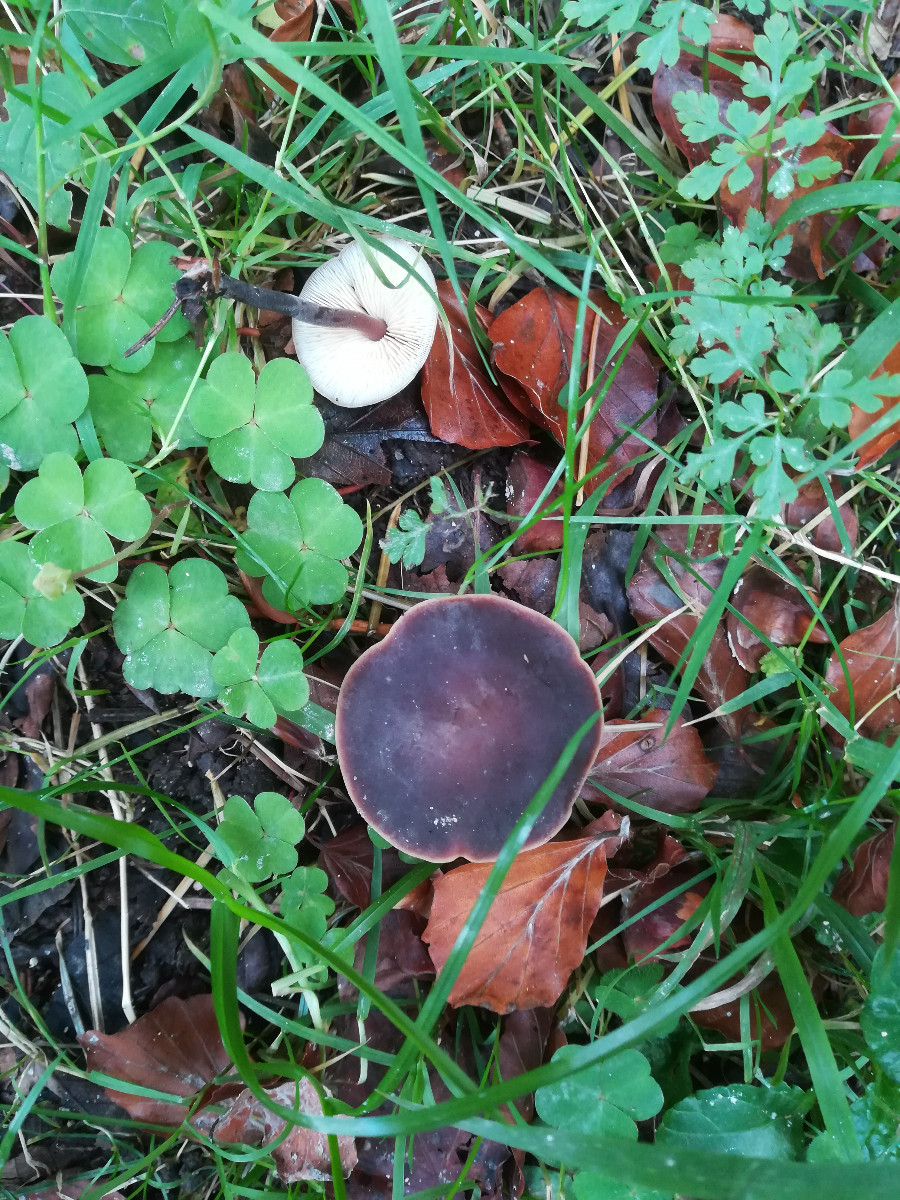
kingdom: Fungi
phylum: Basidiomycota
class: Agaricomycetes
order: Agaricales
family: Macrocystidiaceae
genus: Macrocystidia
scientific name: Macrocystidia cucumis
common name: agurkehat
